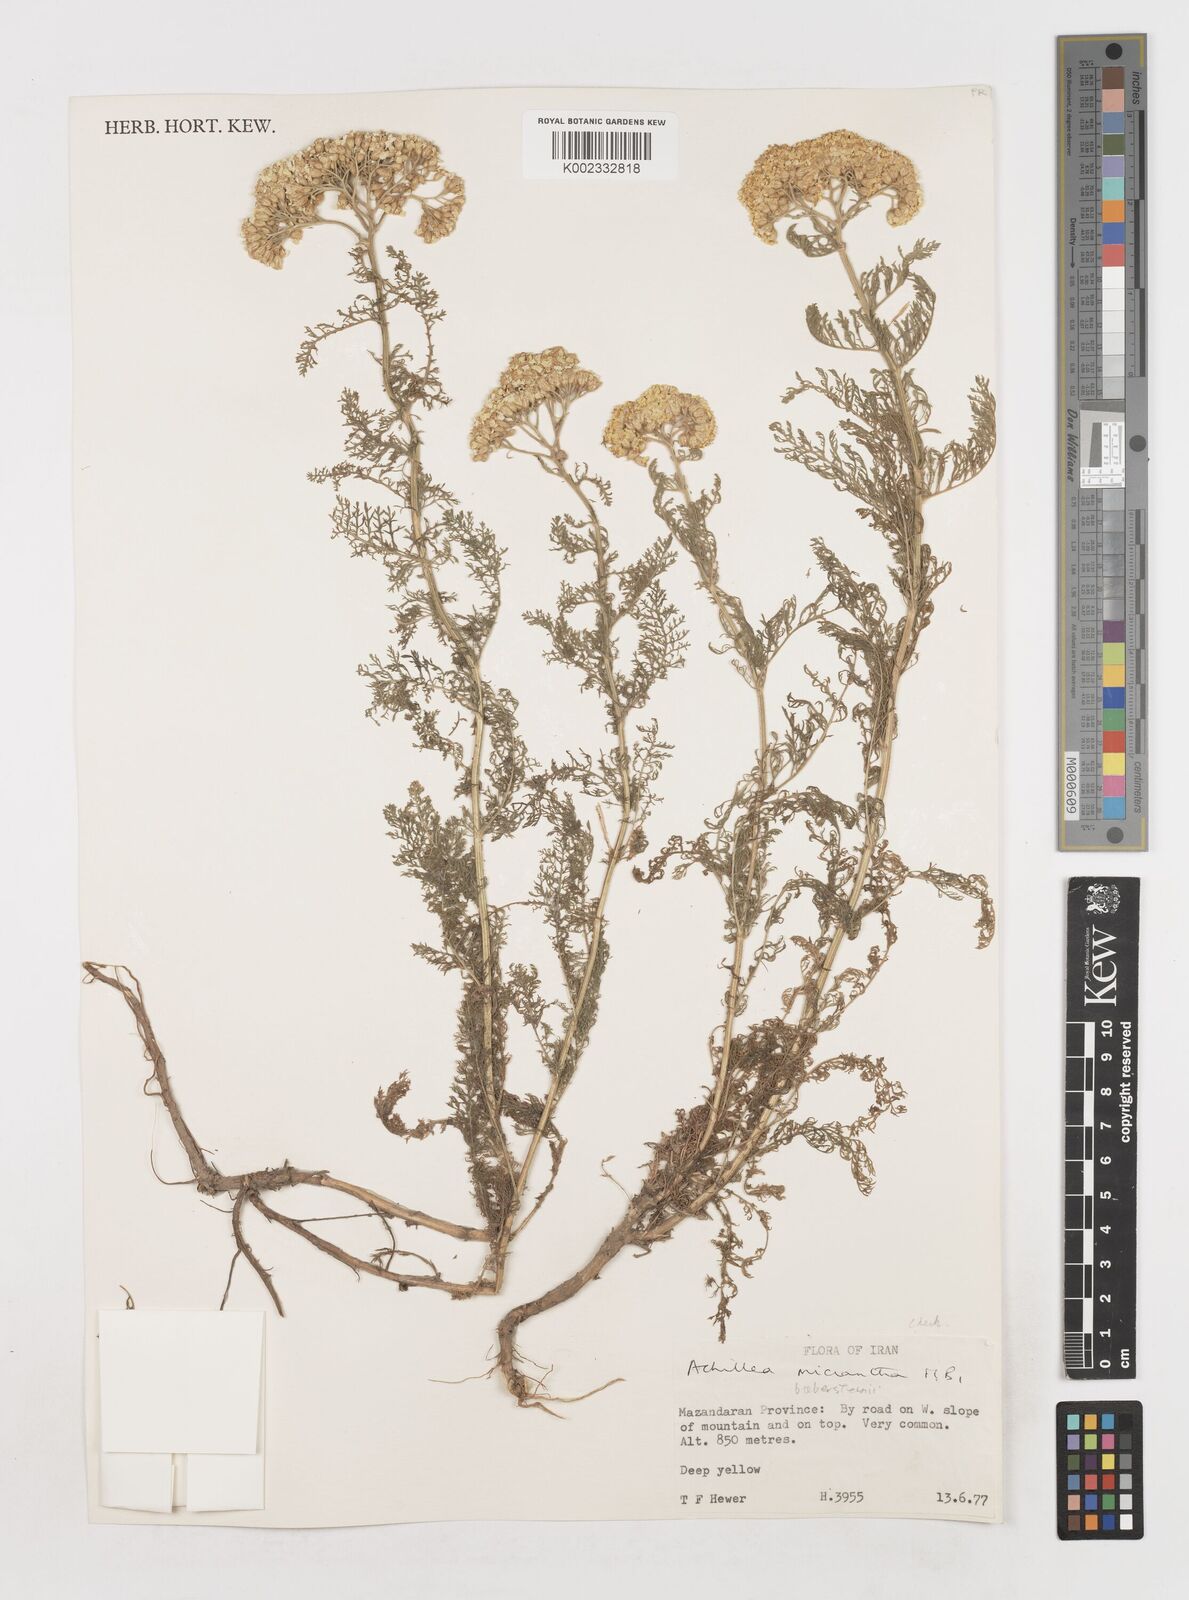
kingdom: Plantae
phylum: Tracheophyta
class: Magnoliopsida
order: Asterales
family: Asteraceae
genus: Achillea
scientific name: Achillea arabica
